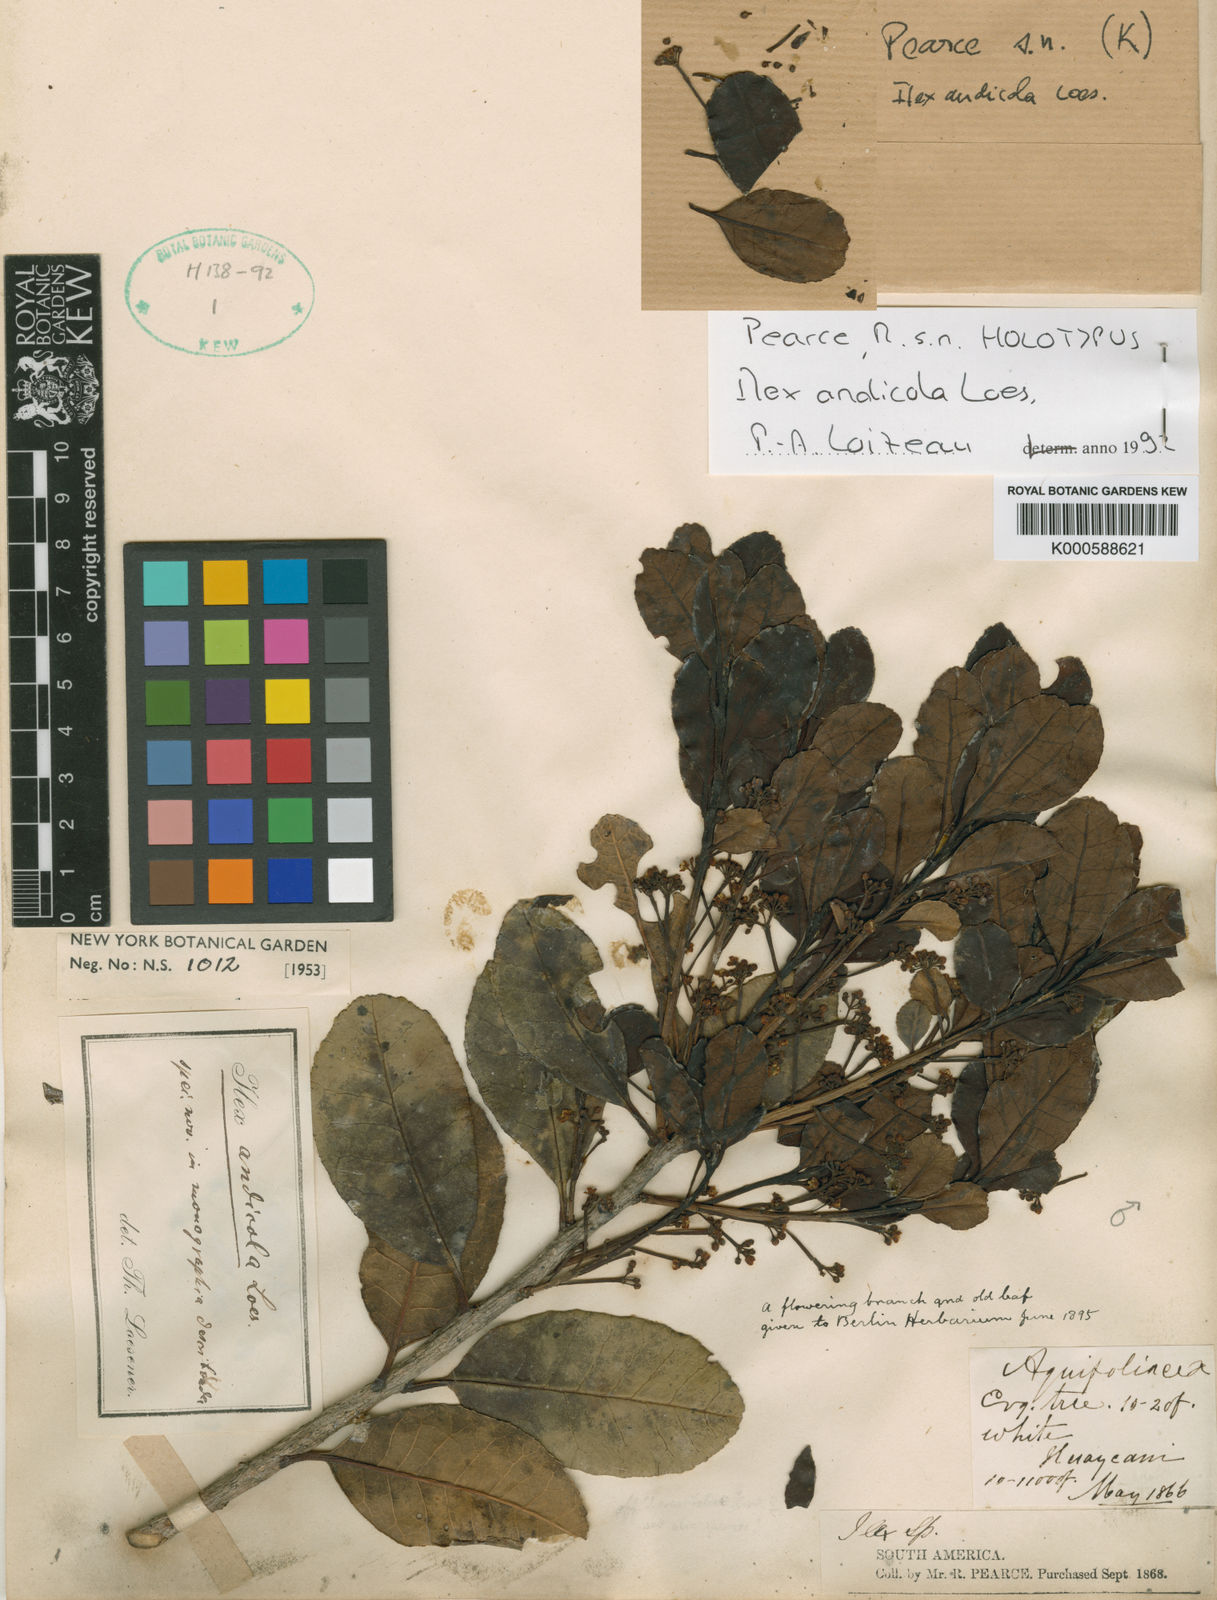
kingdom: Plantae
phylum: Tracheophyta
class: Magnoliopsida
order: Aquifoliales
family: Aquifoliaceae
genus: Ilex
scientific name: Ilex andicola
